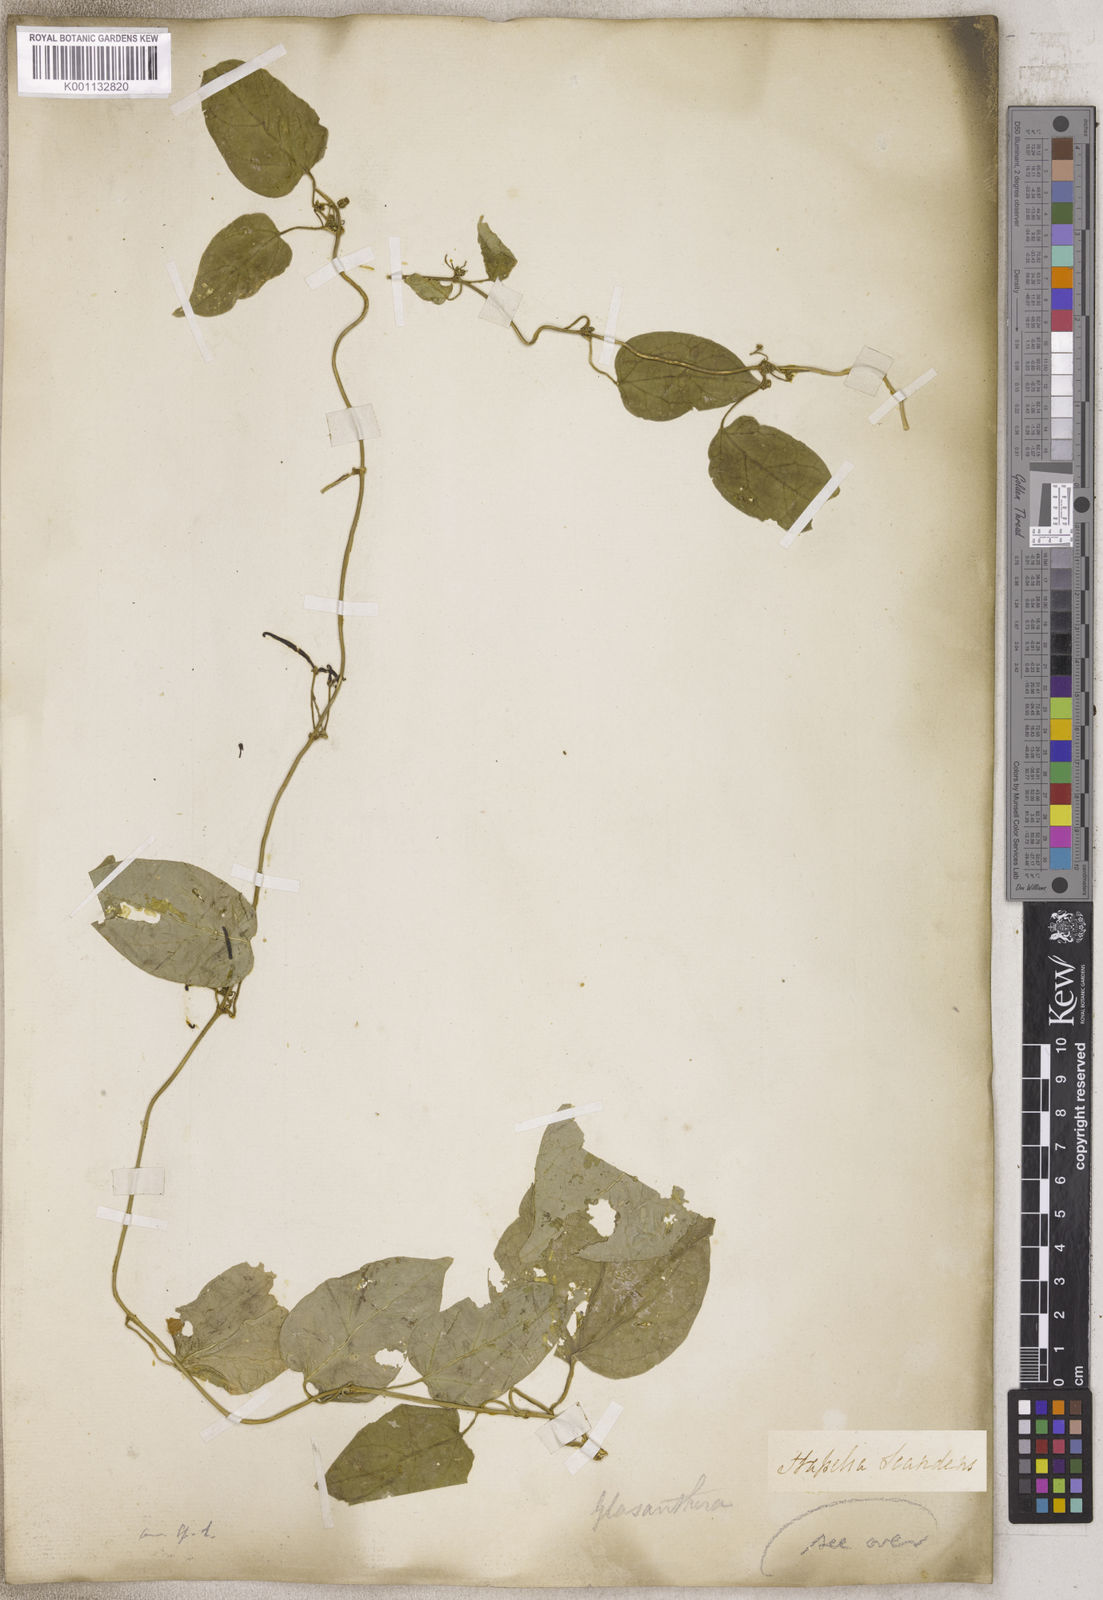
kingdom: Plantae
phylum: Tracheophyta
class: Magnoliopsida
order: Gentianales
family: Apocynaceae
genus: Stapelia
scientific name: Stapelia
